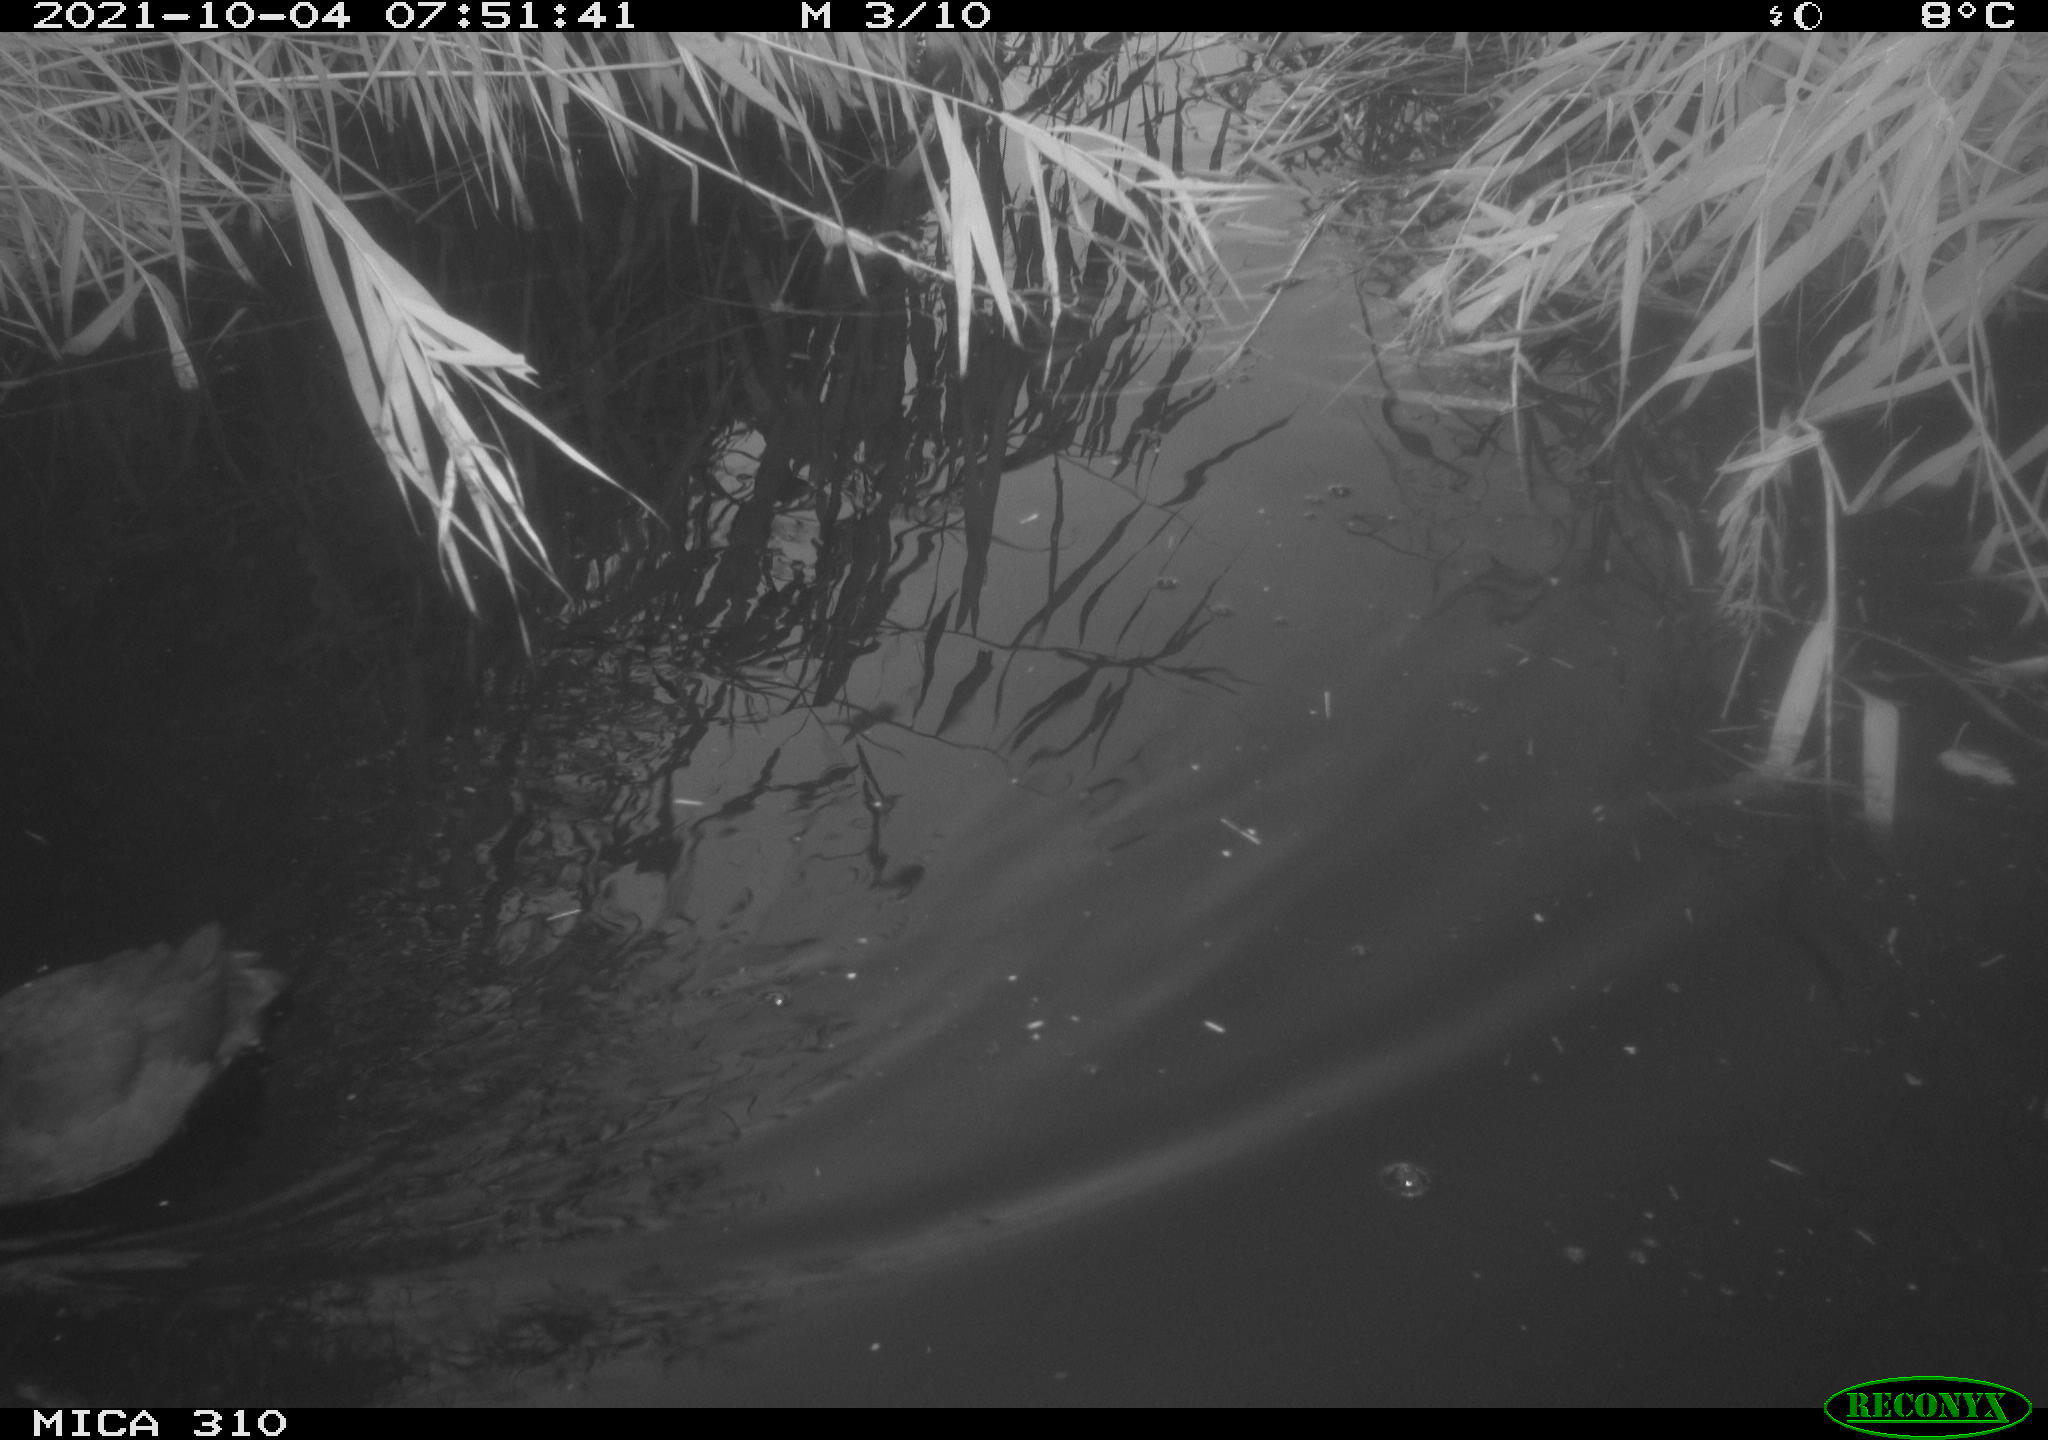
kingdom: Animalia
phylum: Chordata
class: Aves
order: Gruiformes
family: Rallidae
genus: Fulica
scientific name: Fulica atra
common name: Eurasian coot
